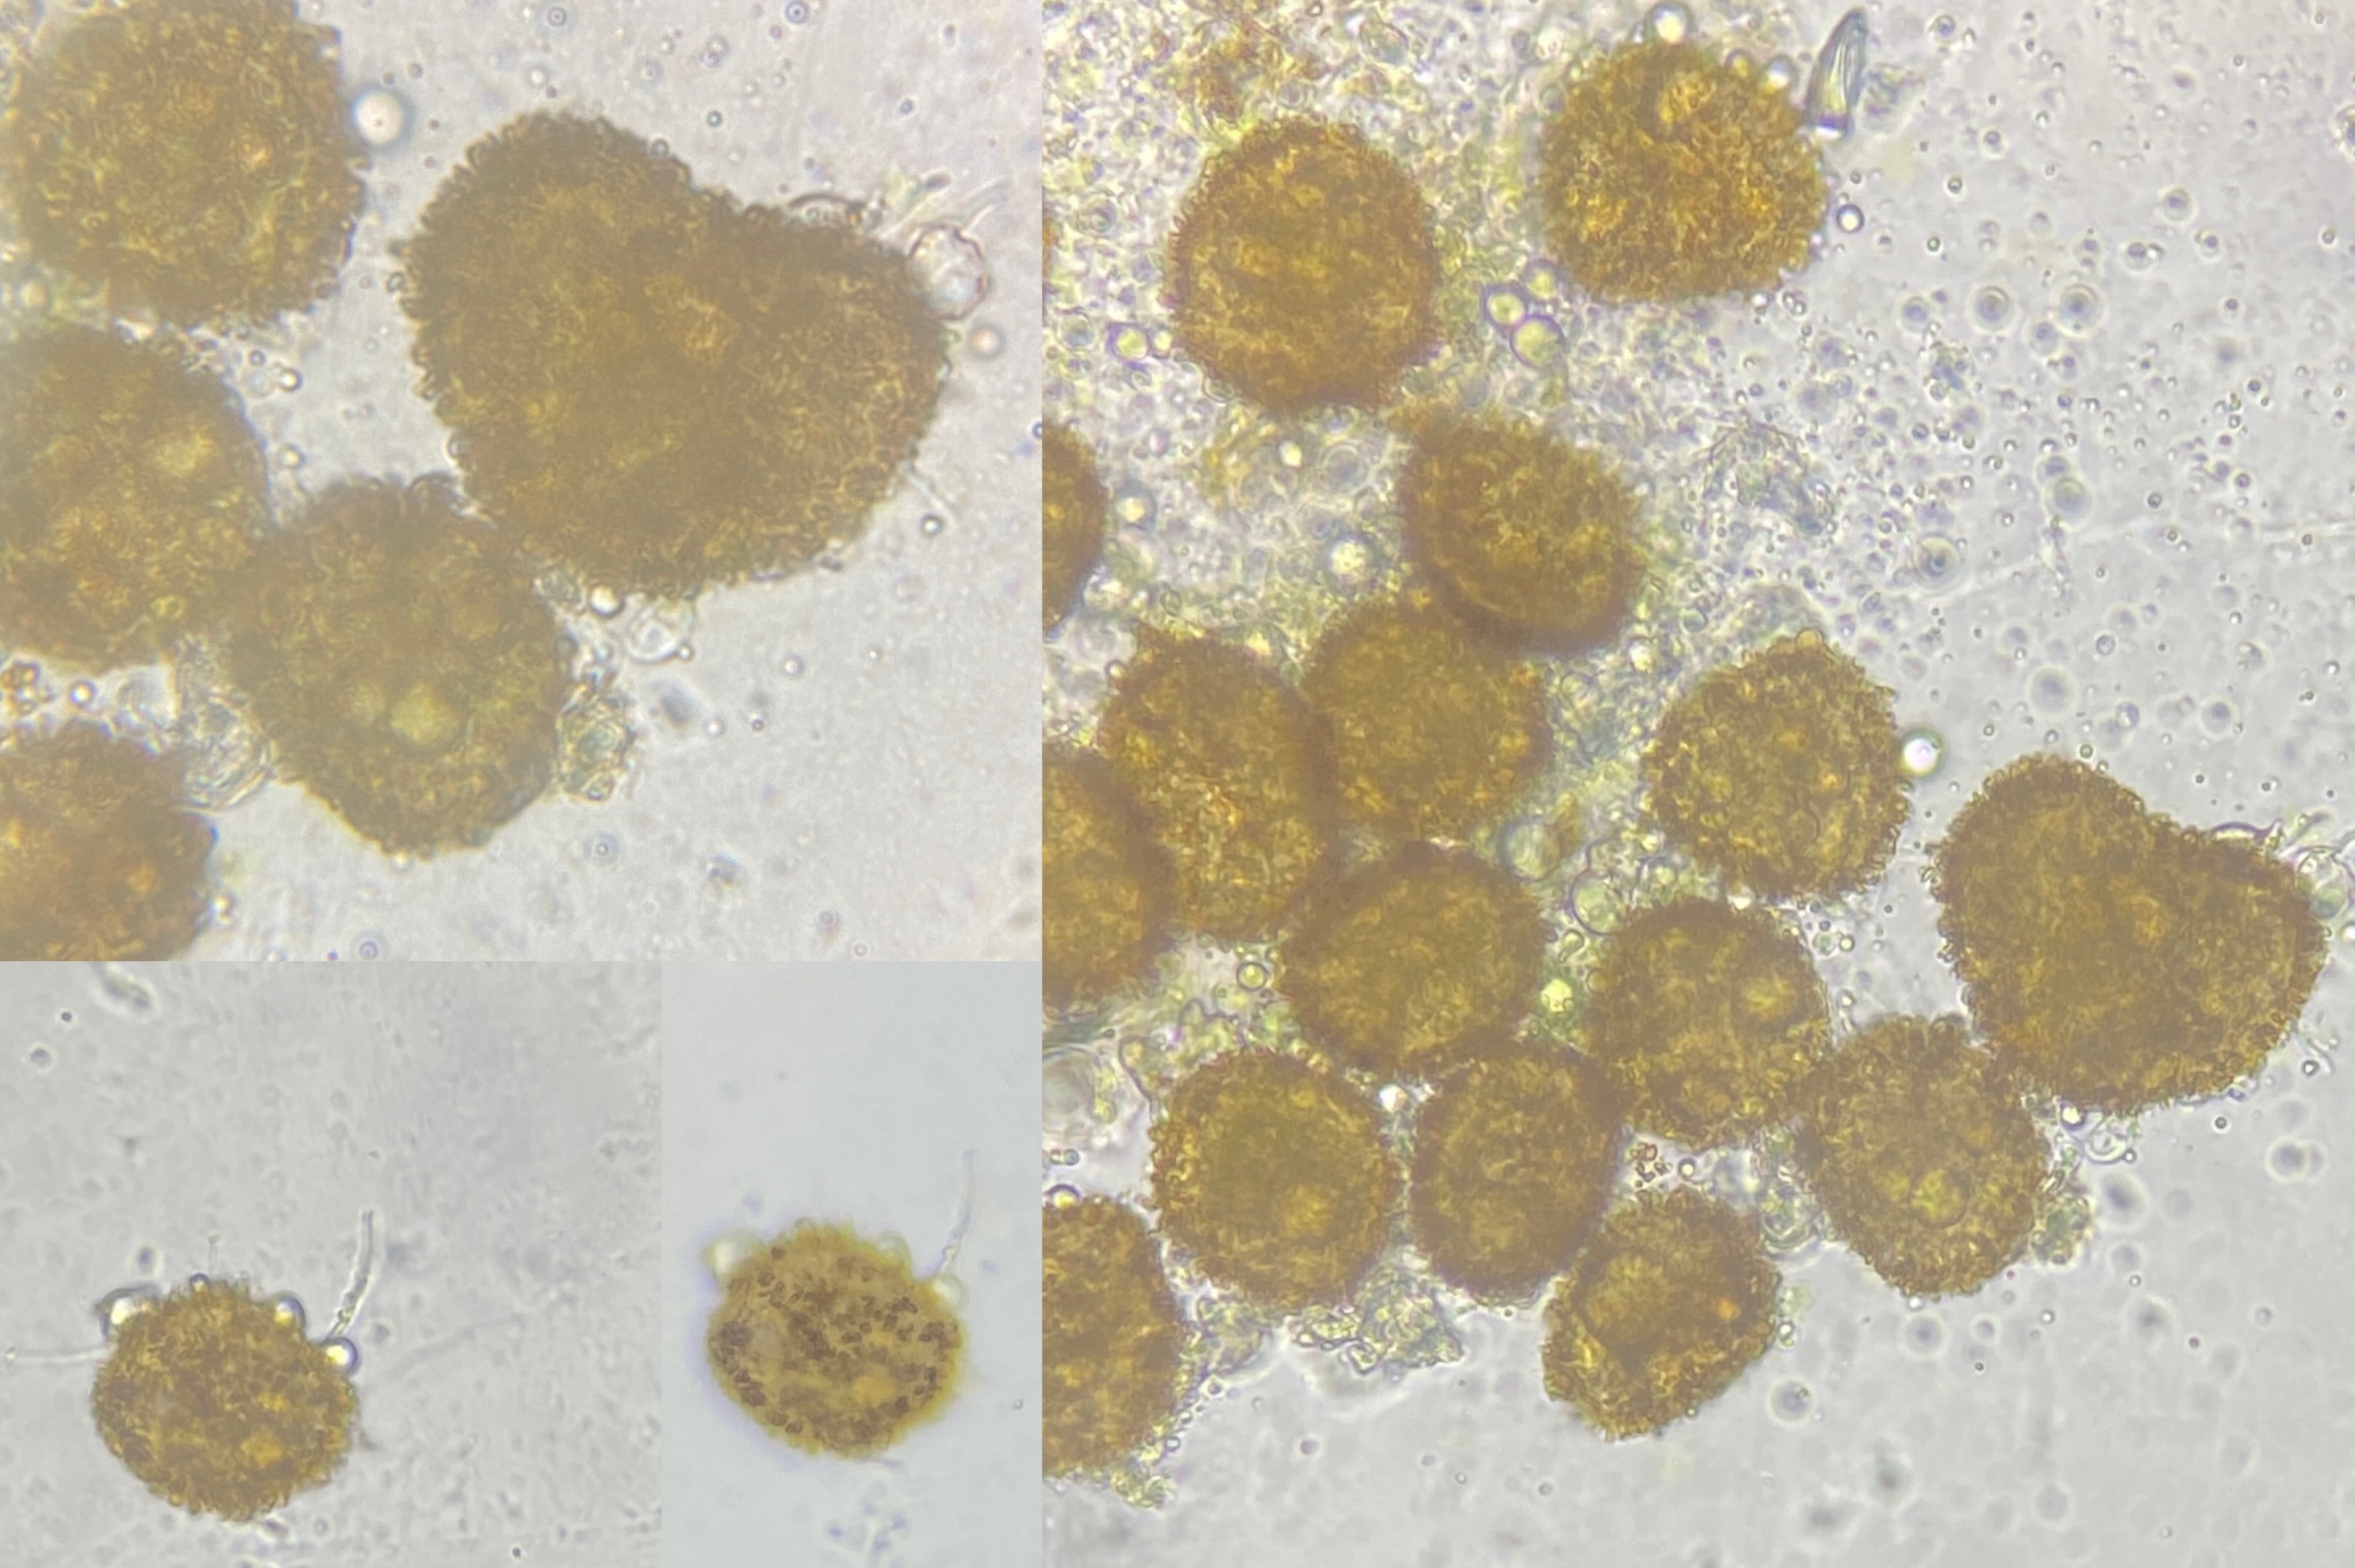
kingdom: Plantae
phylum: Bryophyta
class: Bryopsida
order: Pottiales
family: Pottiaceae
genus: Microbryum
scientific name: Microbryum davallianum
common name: Roset-småmos
